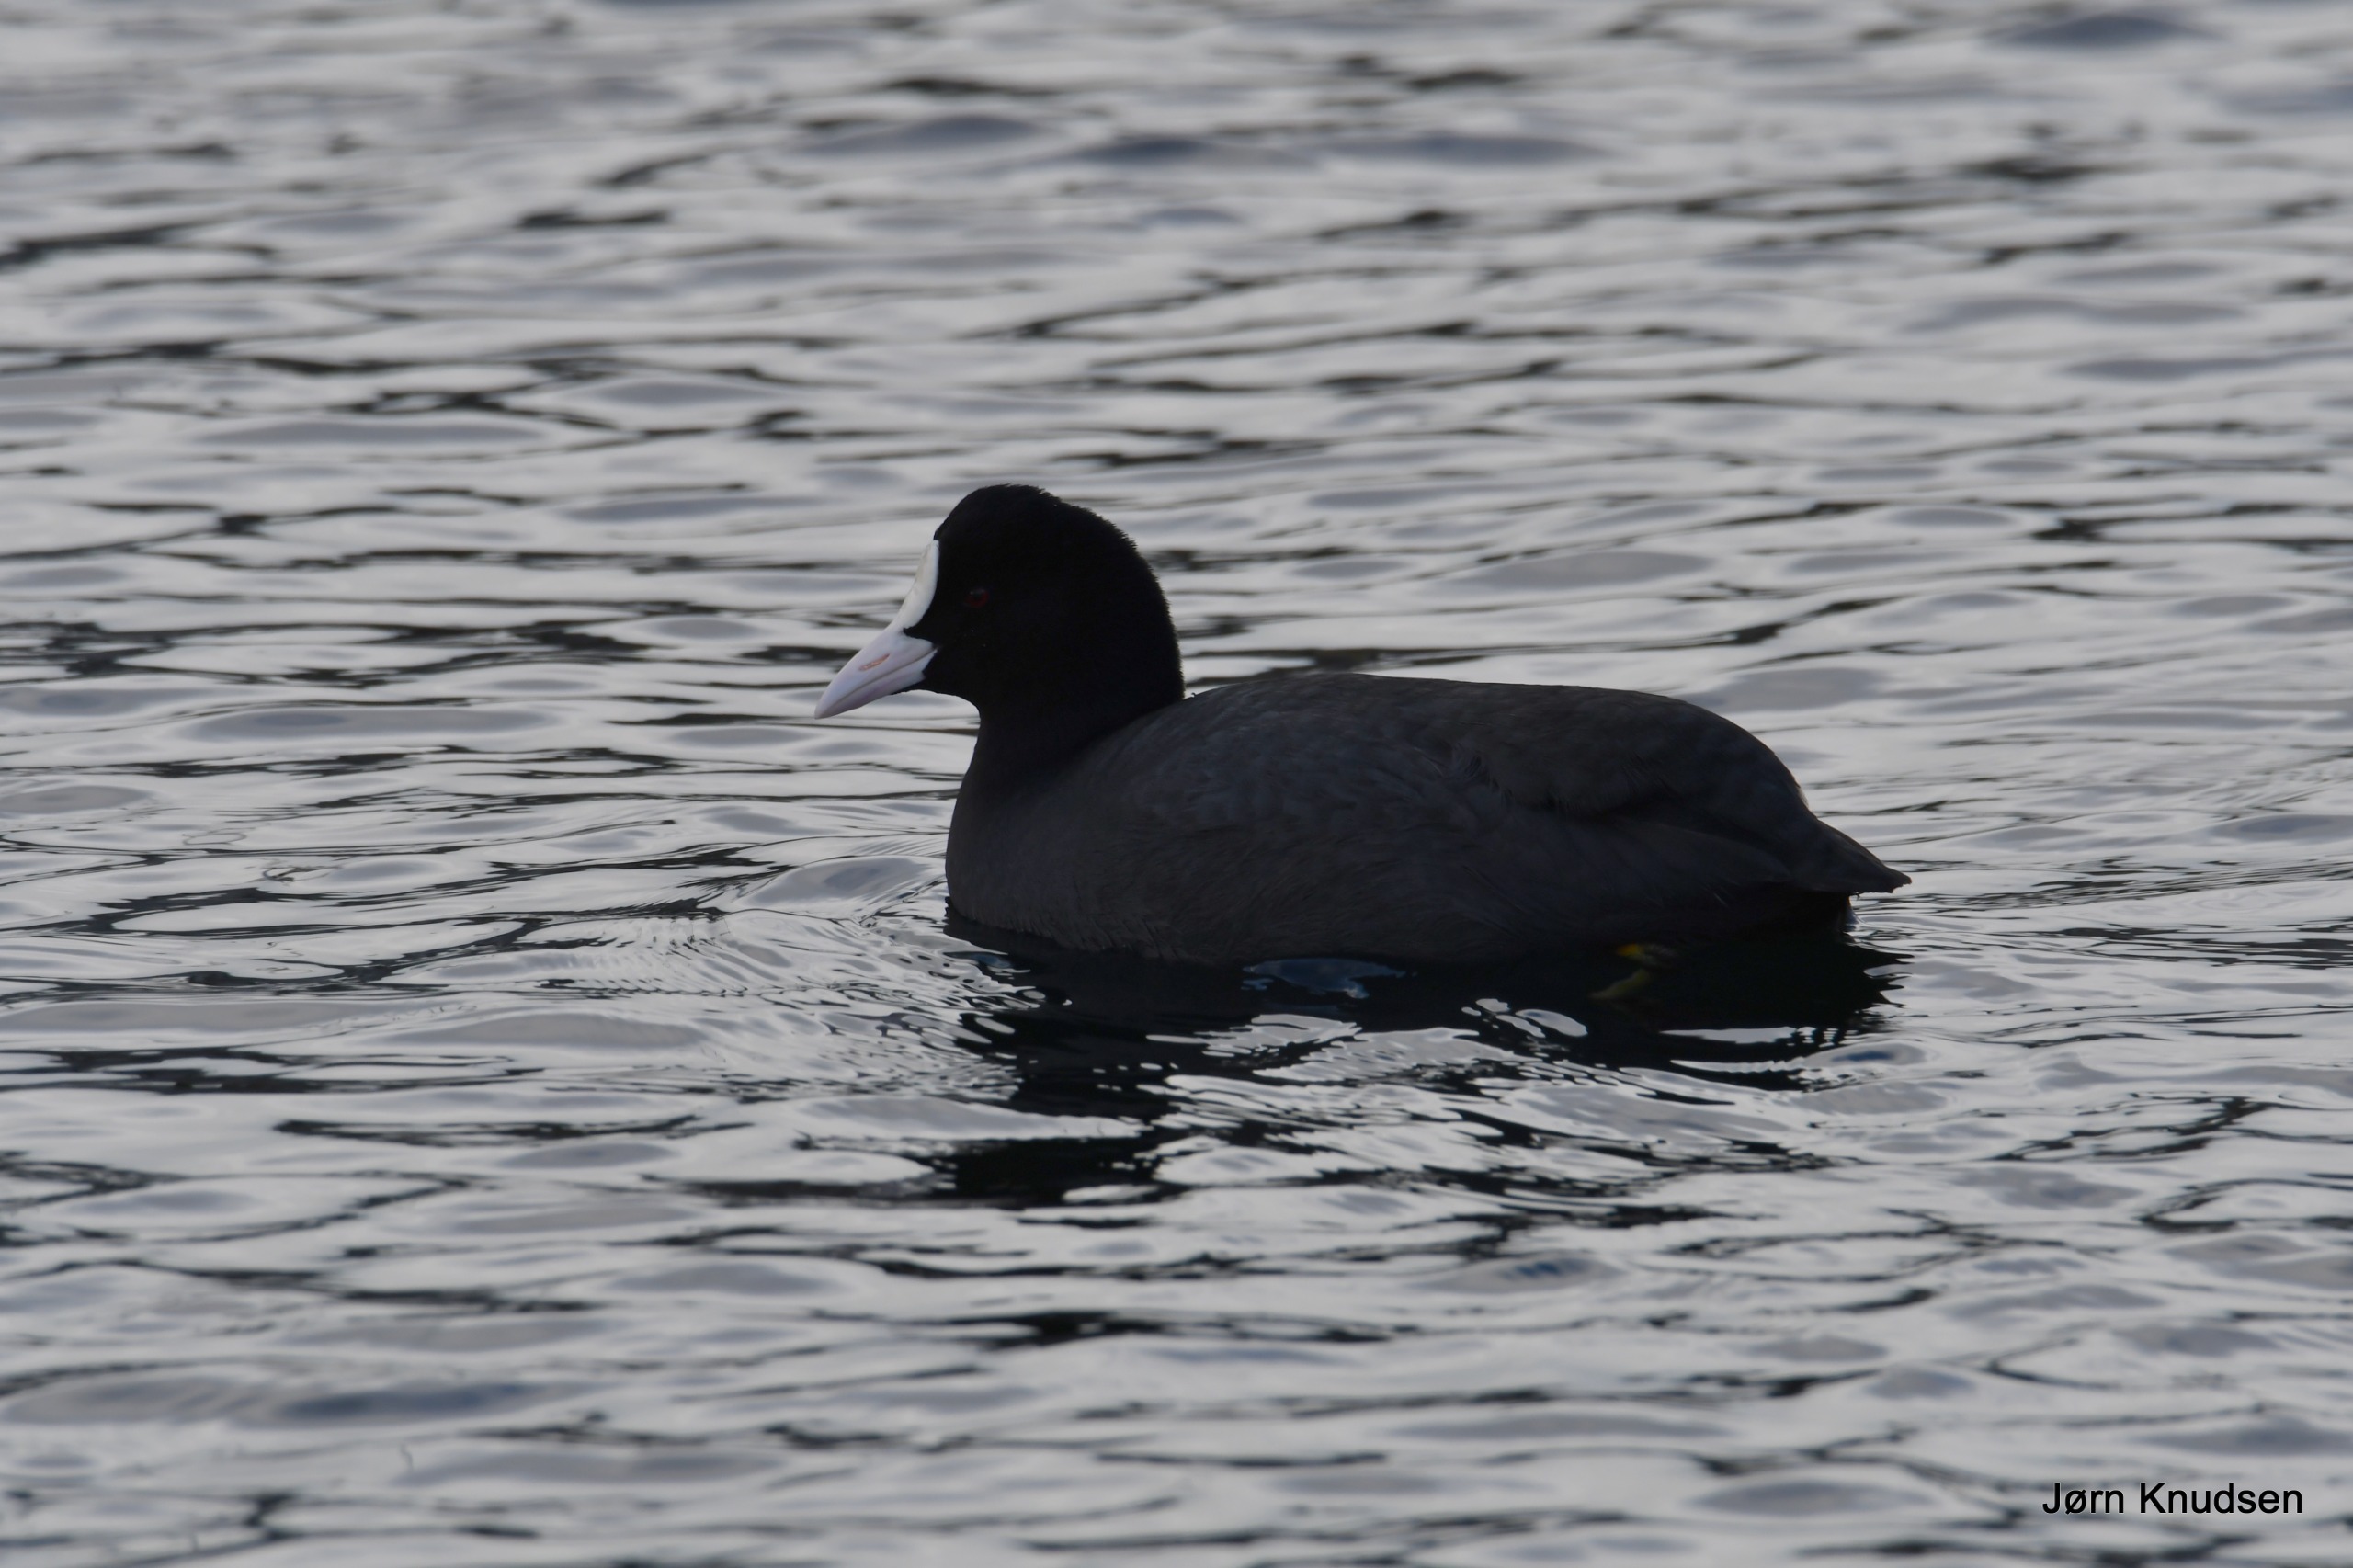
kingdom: Animalia
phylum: Chordata
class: Aves
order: Gruiformes
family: Rallidae
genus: Fulica
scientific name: Fulica atra
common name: Blishøne
